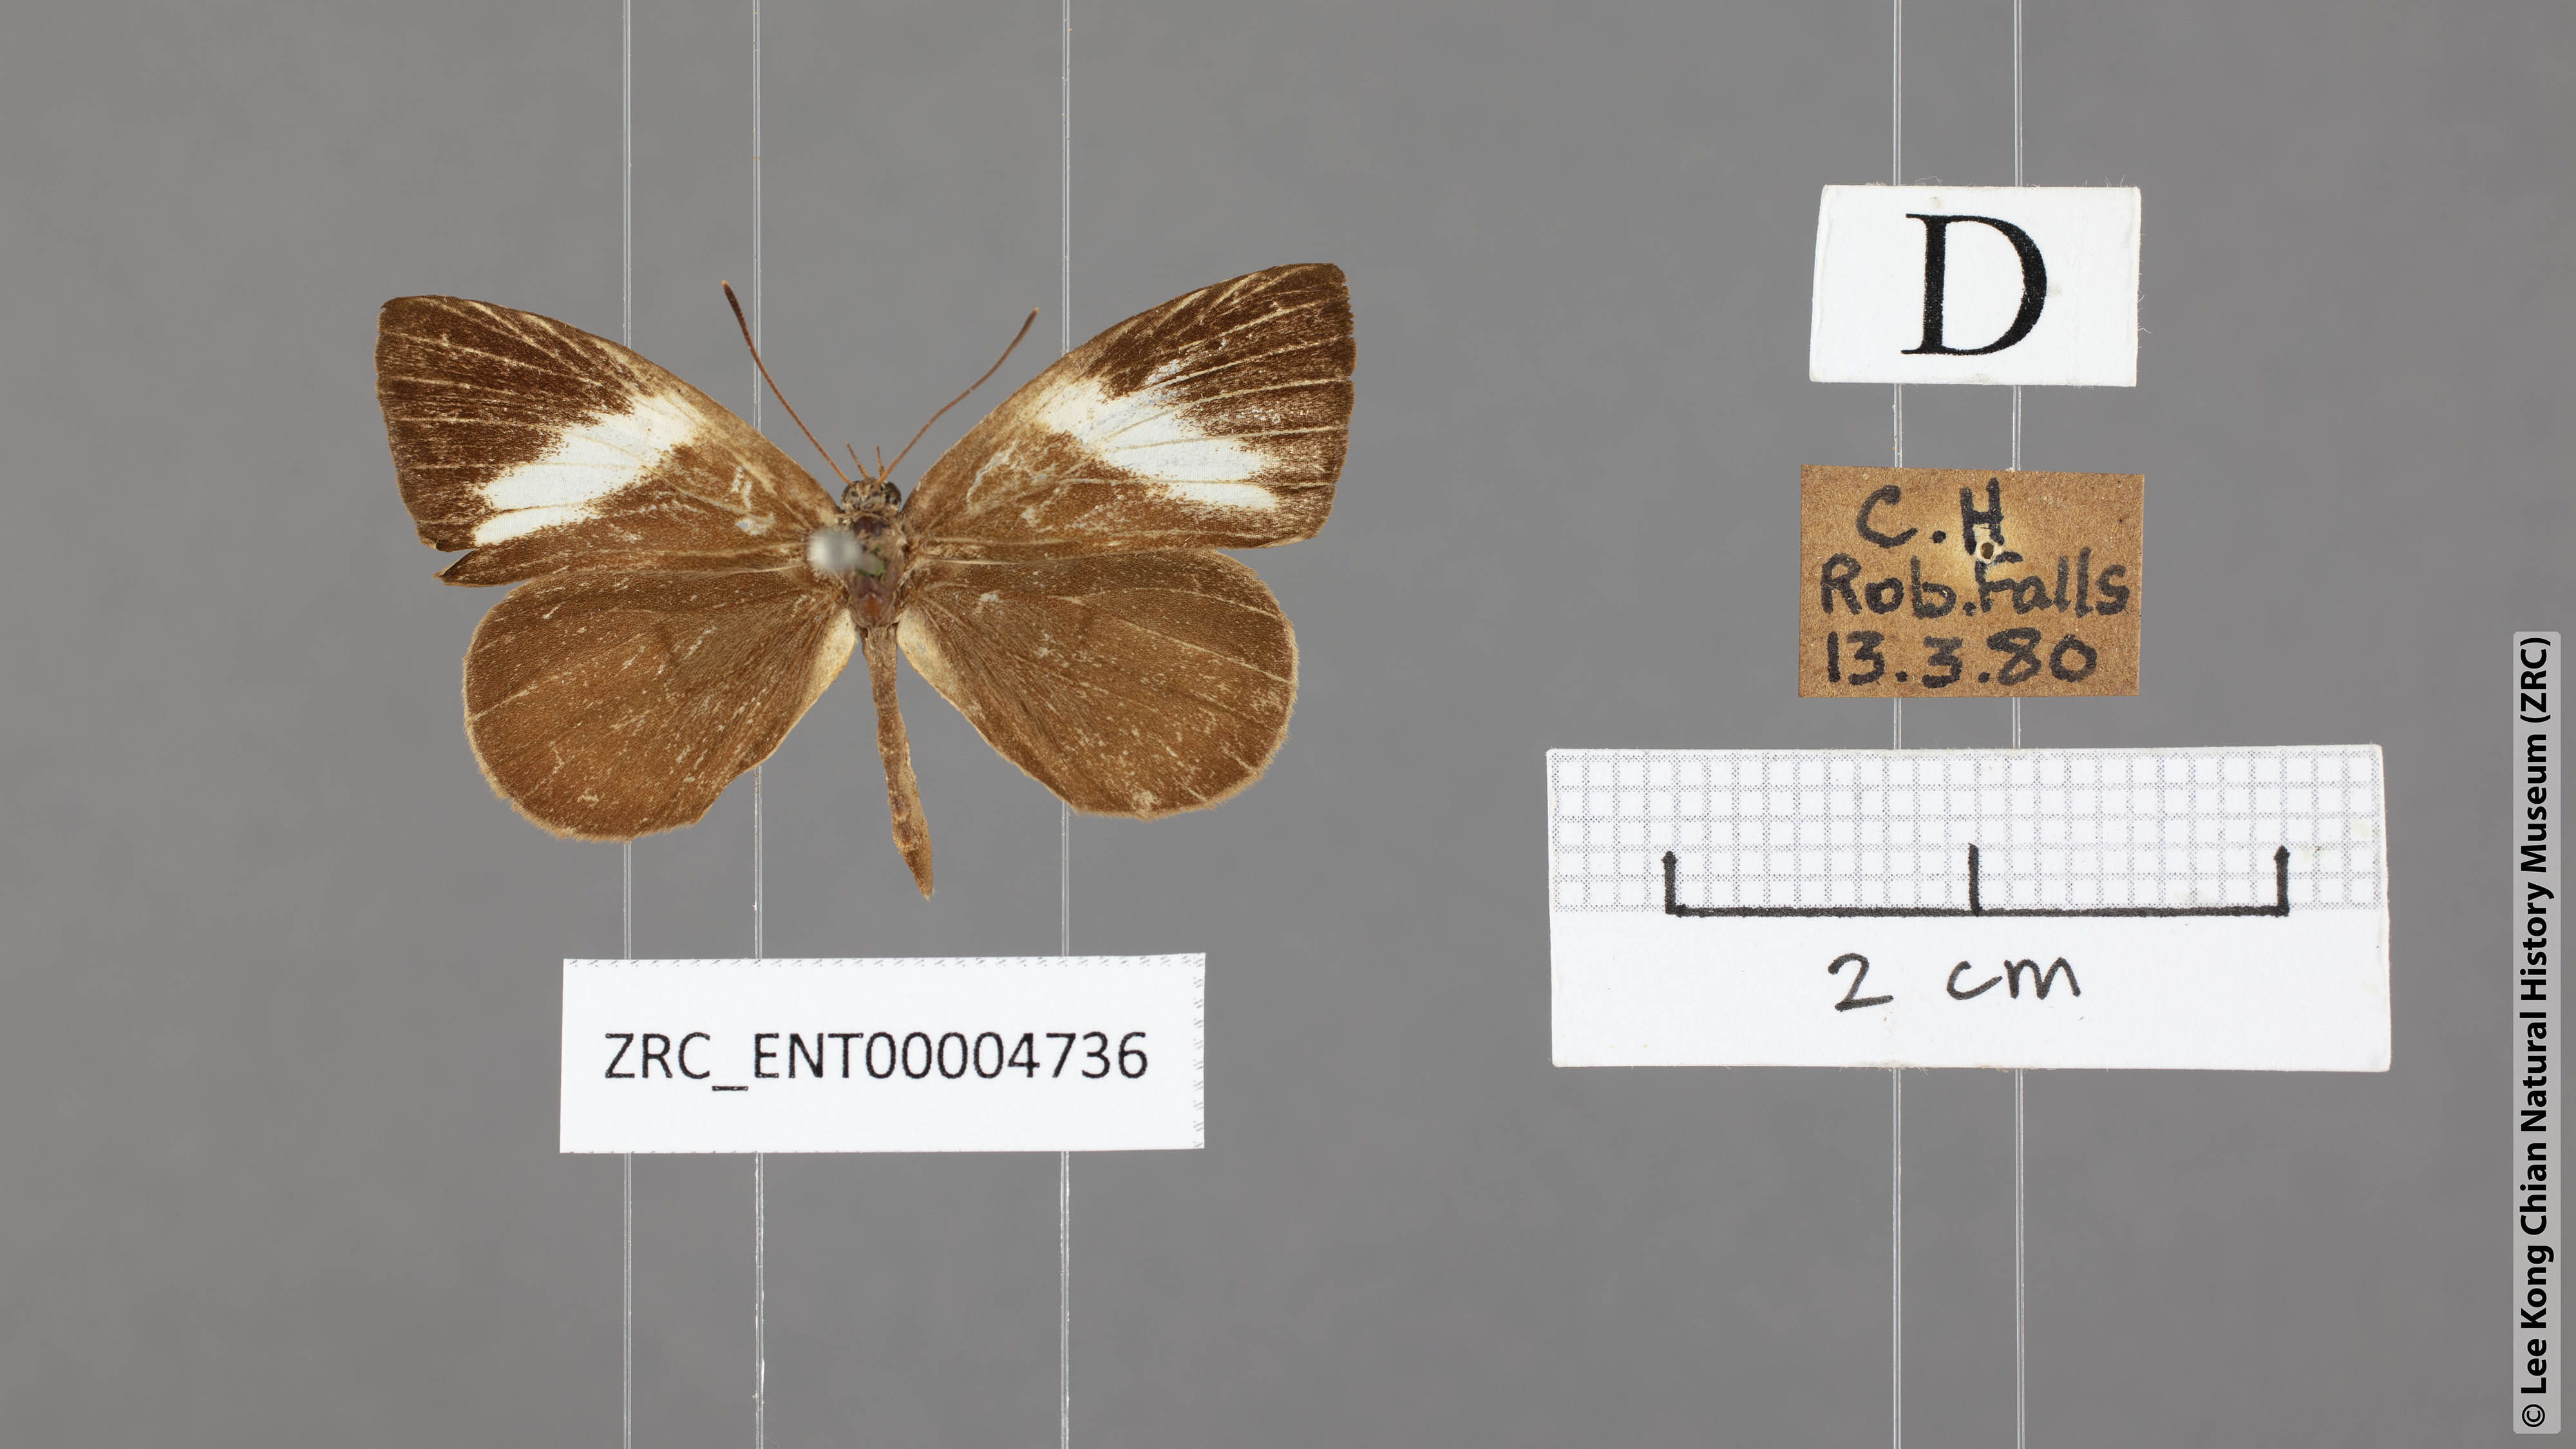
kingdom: Animalia
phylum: Arthropoda
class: Insecta
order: Lepidoptera
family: Lycaenidae
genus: Miletus
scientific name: Miletus nymphis
